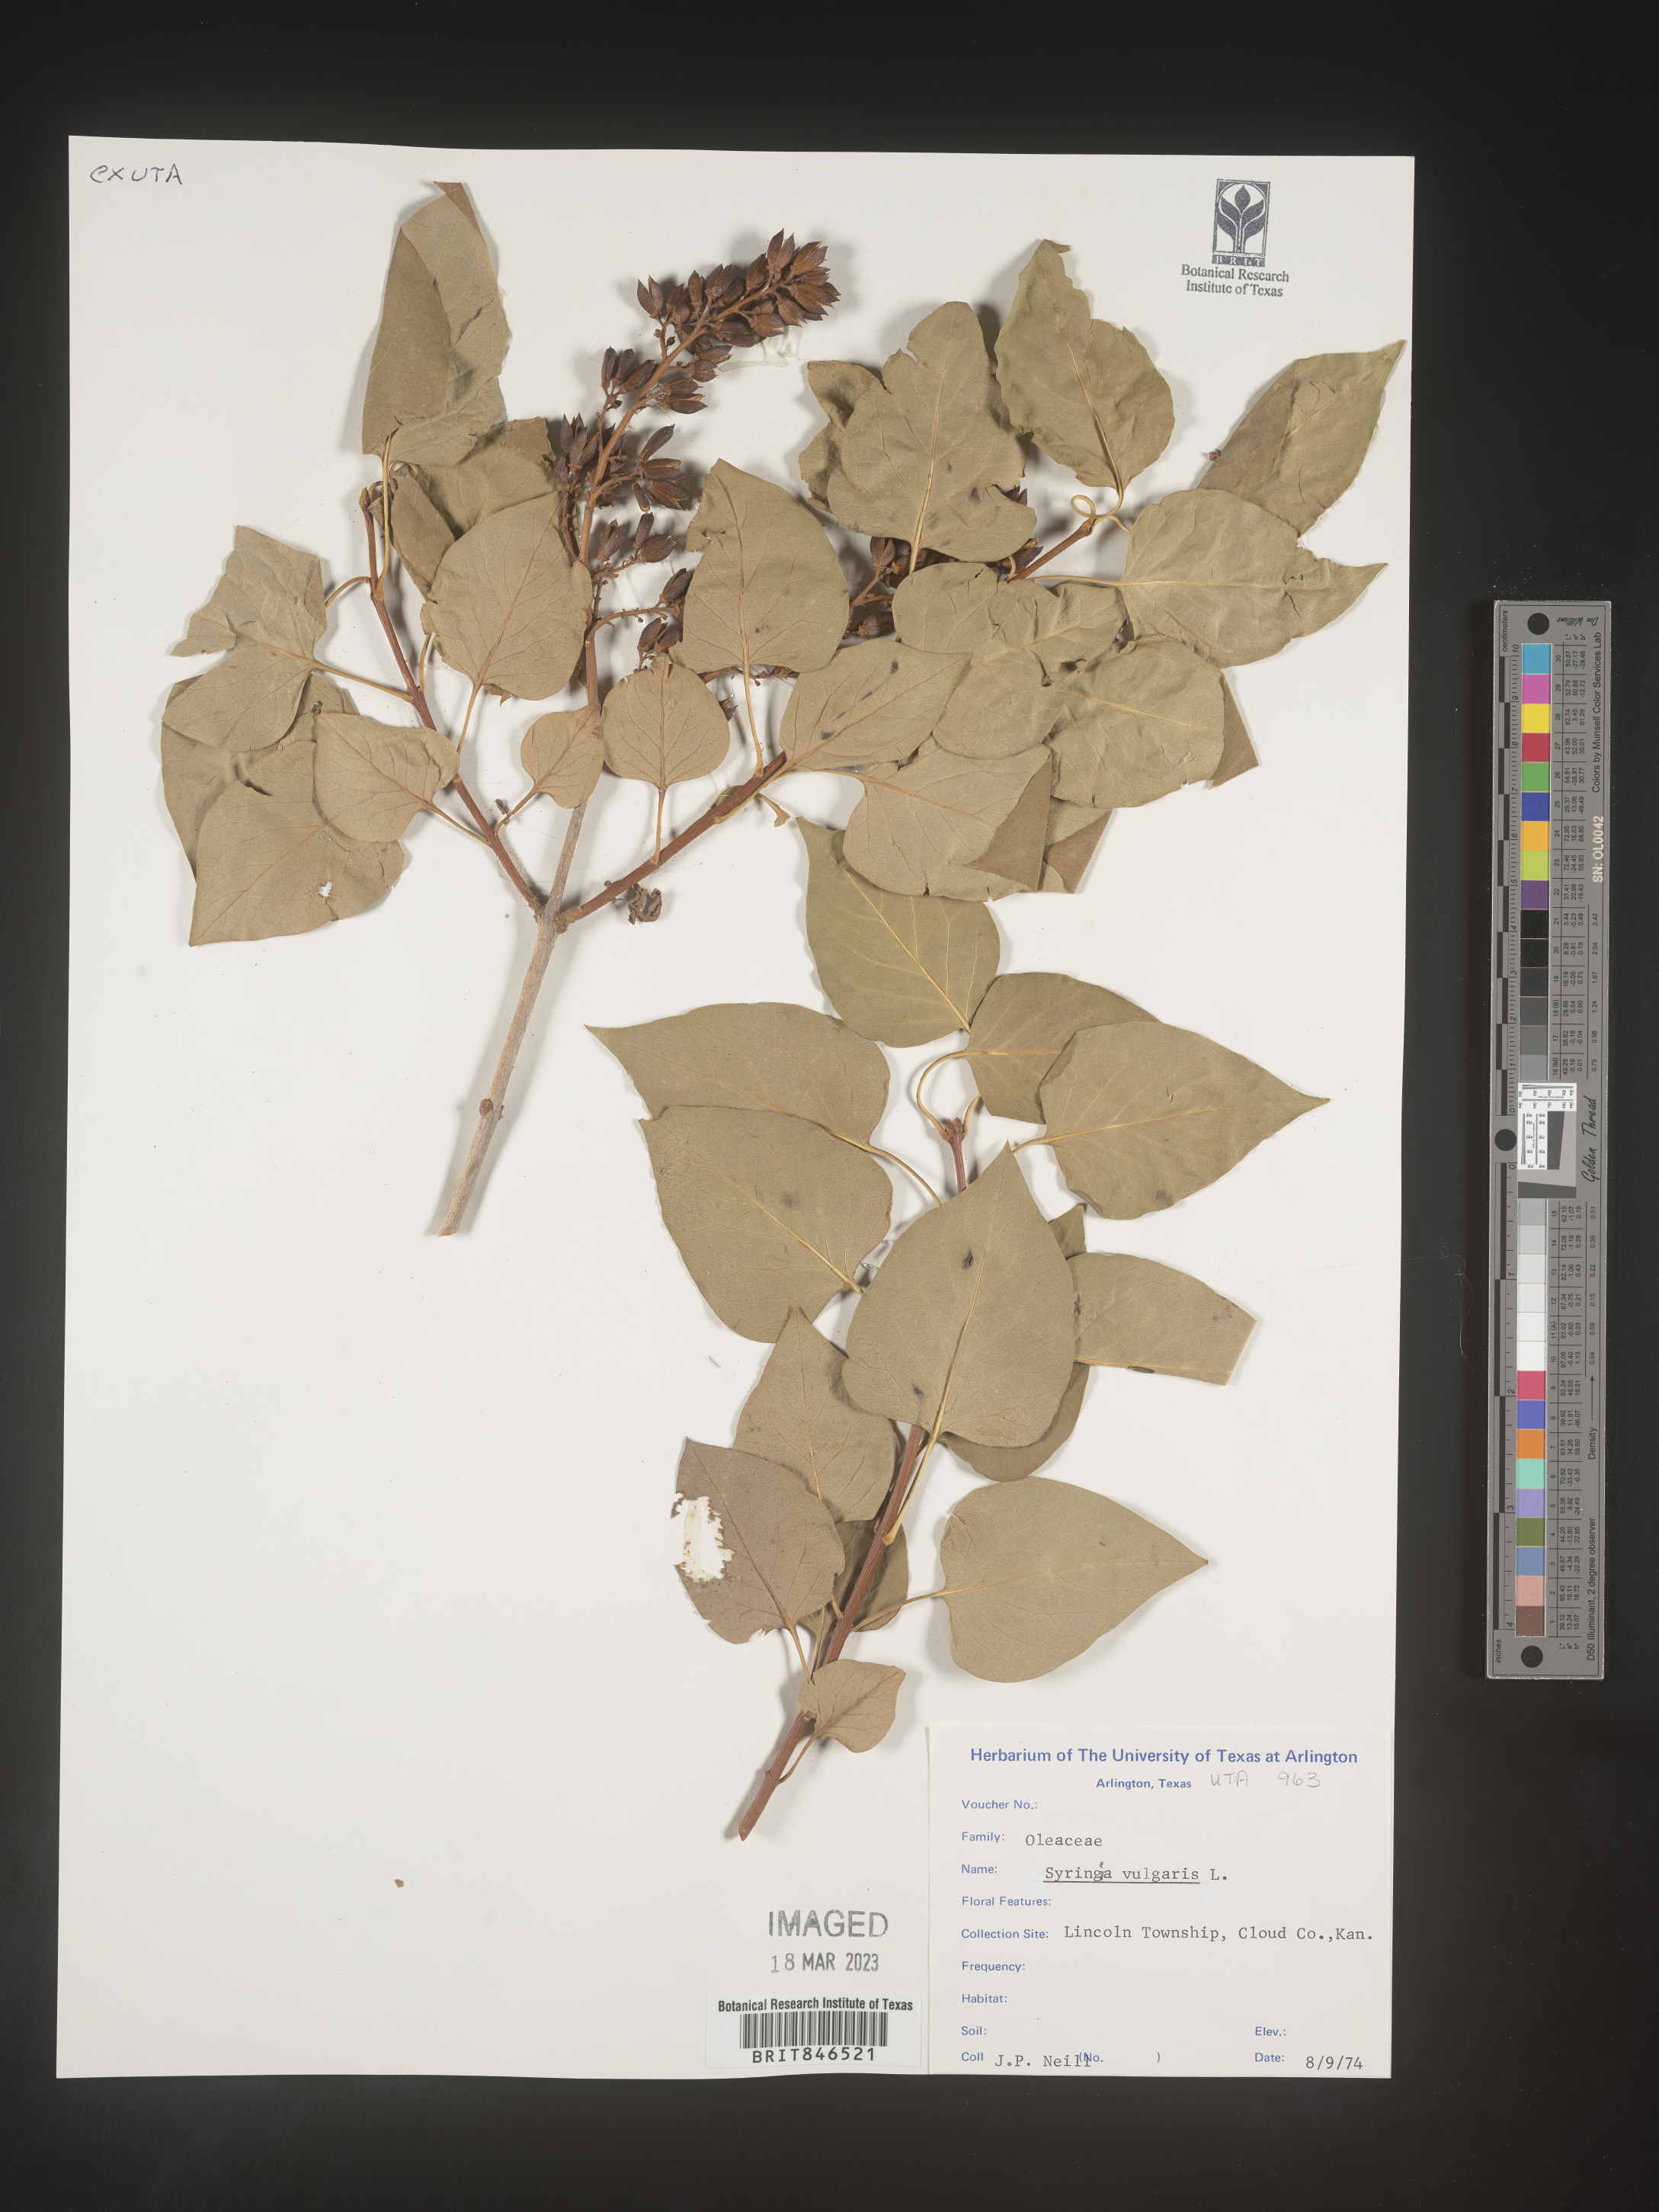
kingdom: Plantae
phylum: Tracheophyta
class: Magnoliopsida
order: Lamiales
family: Oleaceae
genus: Syringa
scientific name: Syringa
